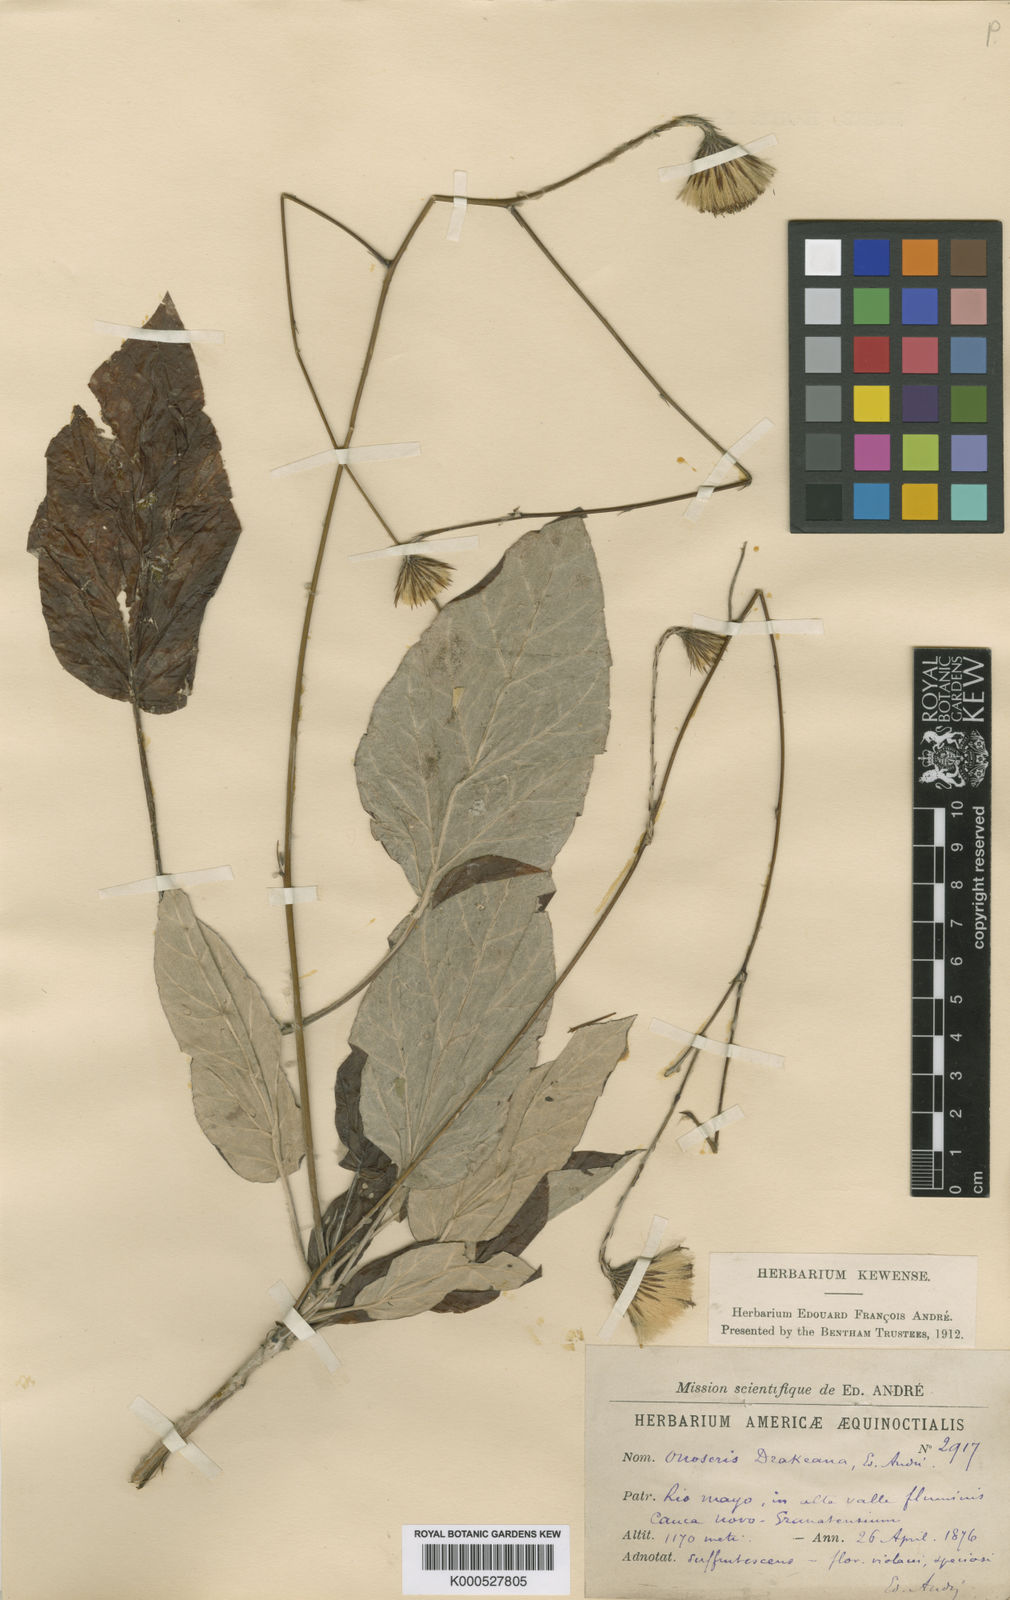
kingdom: Plantae
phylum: Tracheophyta
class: Magnoliopsida
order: Asterales
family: Asteraceae
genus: Onoseris
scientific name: Onoseris drakeana
